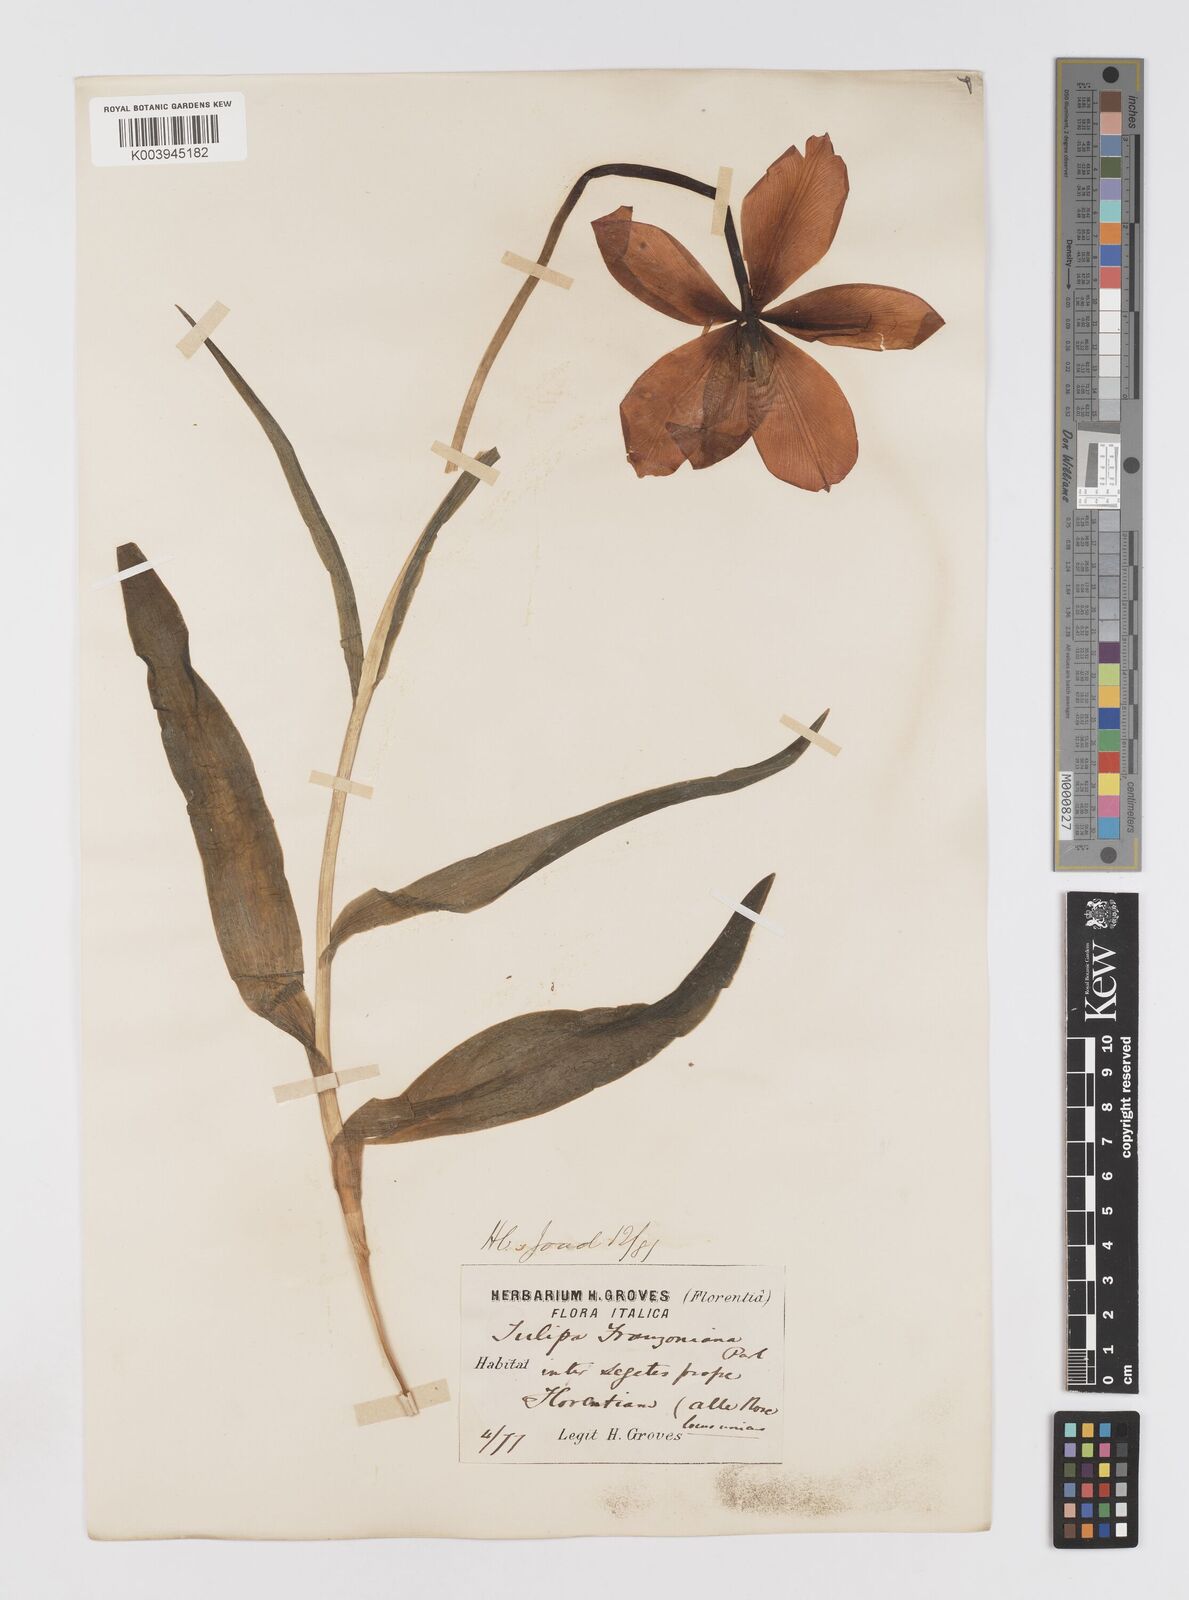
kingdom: Plantae
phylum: Tracheophyta
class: Liliopsida
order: Liliales
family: Liliaceae
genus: Tulipa
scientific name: Tulipa gesneriana
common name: Garden tulip
